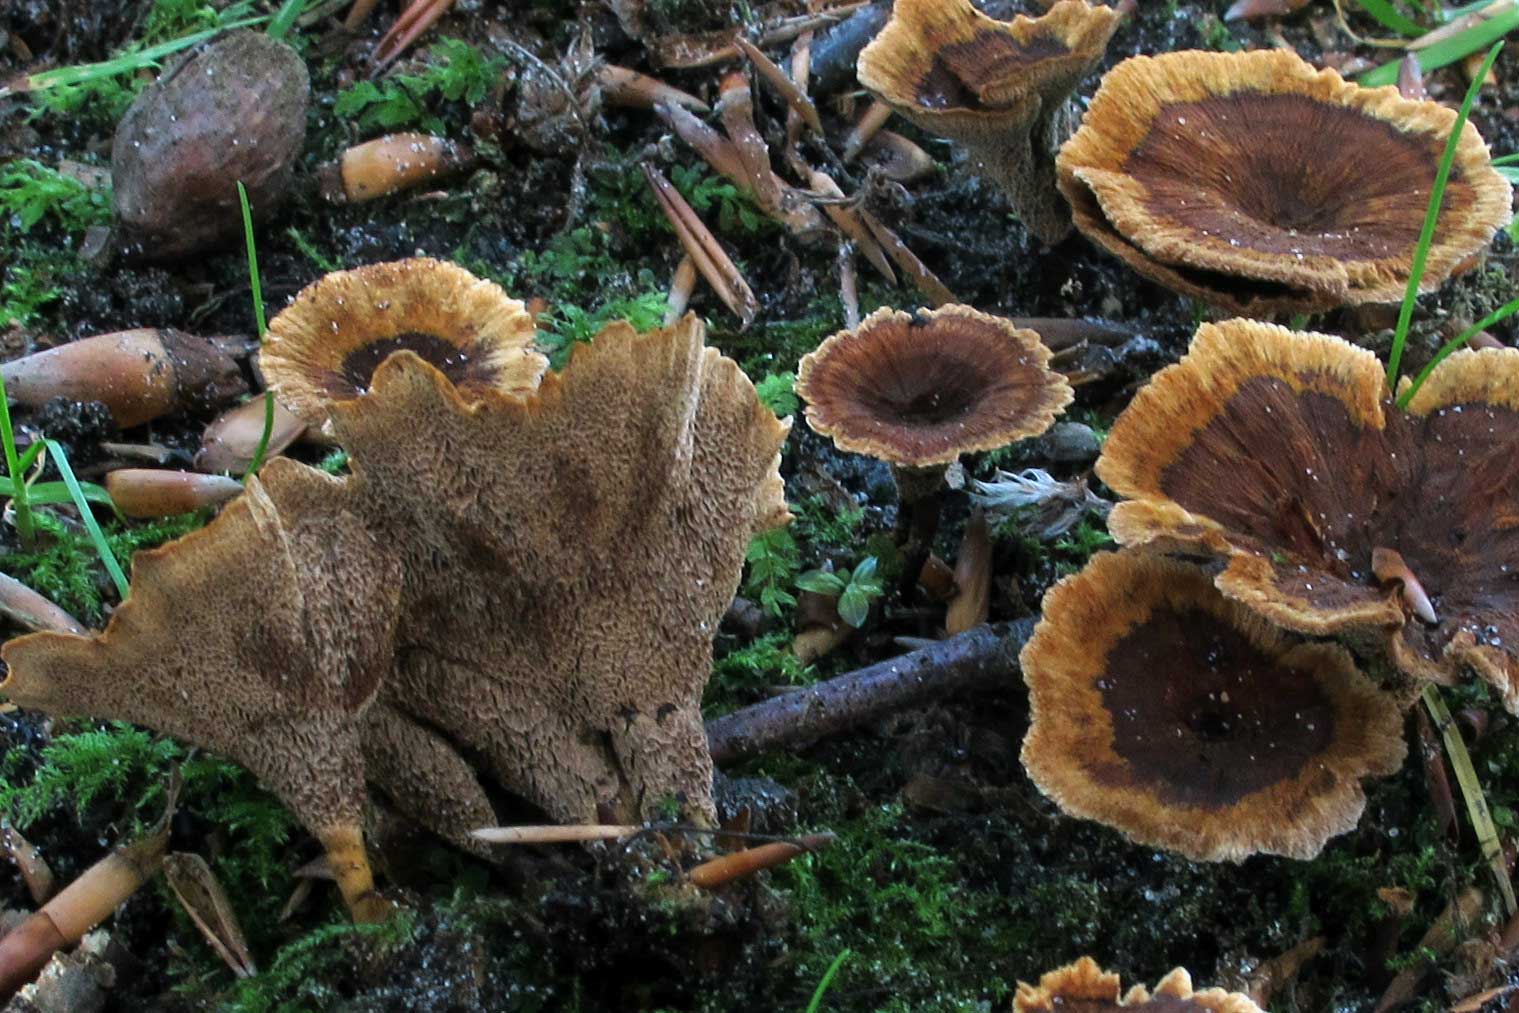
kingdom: Fungi
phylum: Basidiomycota
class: Agaricomycetes
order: Hymenochaetales
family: Hymenochaetaceae
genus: Coltricia
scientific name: Coltricia confluens
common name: park-sandporesvamp
